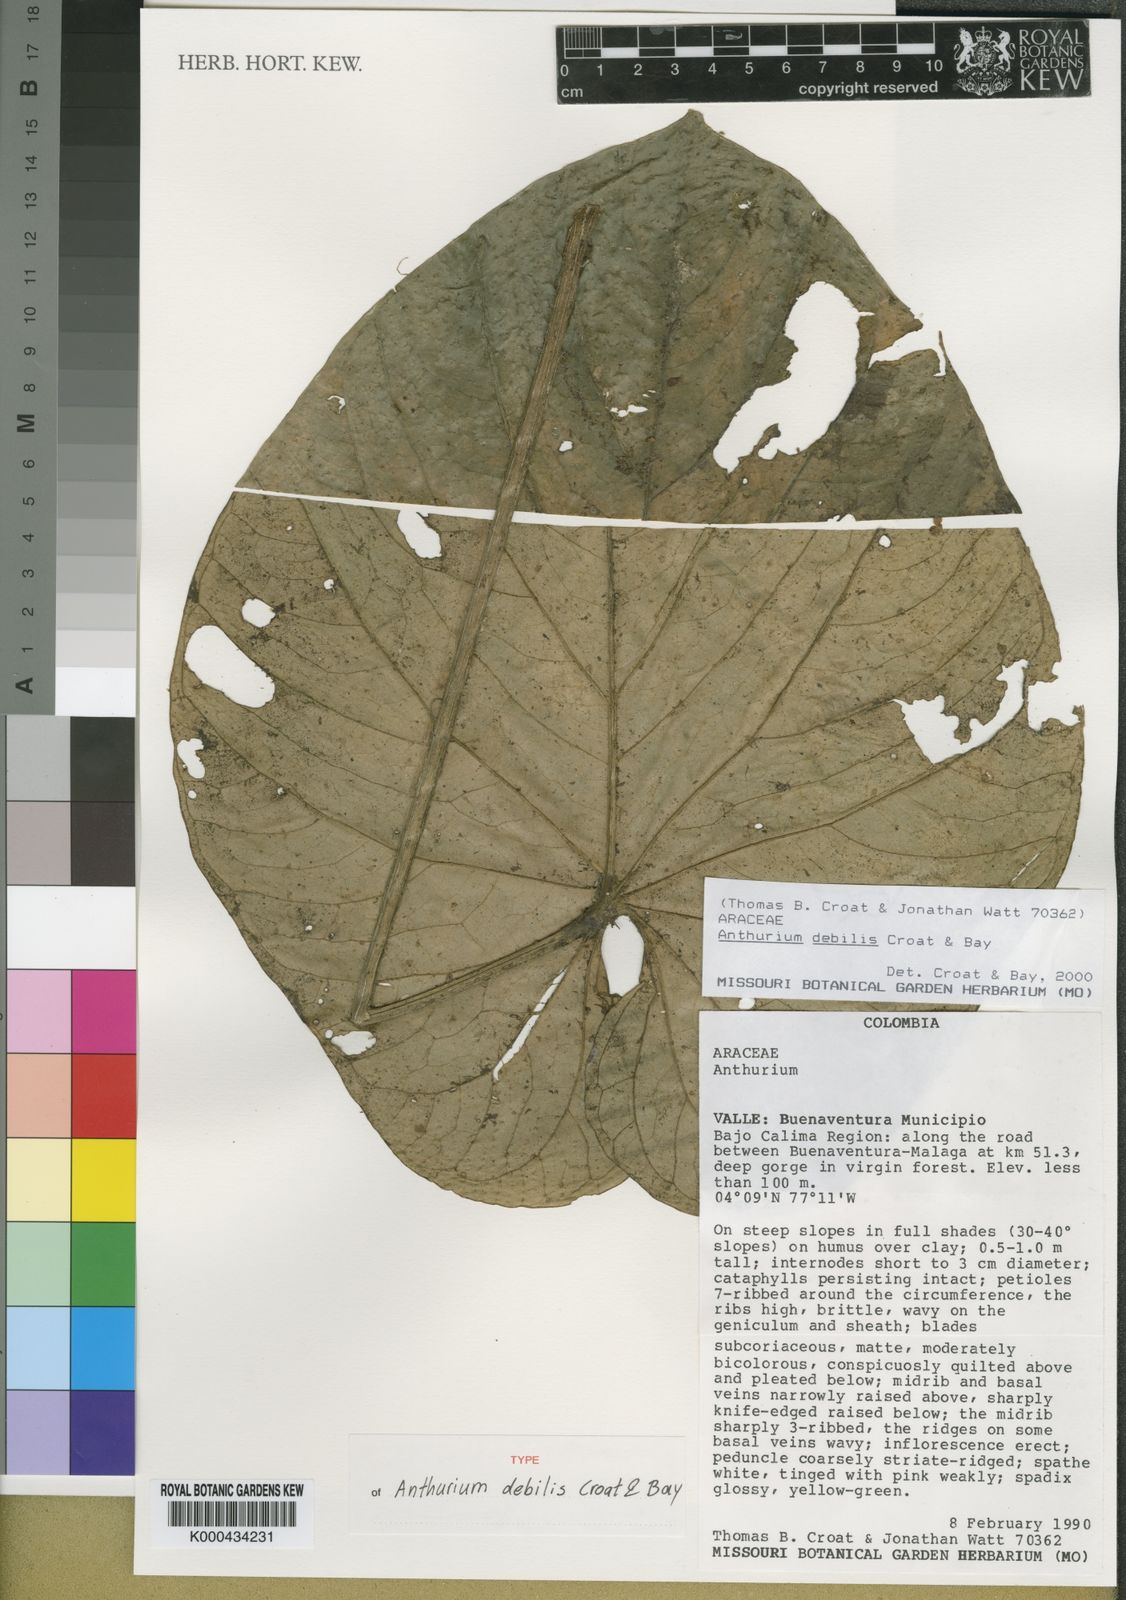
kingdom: Plantae
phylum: Tracheophyta
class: Liliopsida
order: Alismatales
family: Araceae
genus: Anthurium
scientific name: Anthurium debilis
